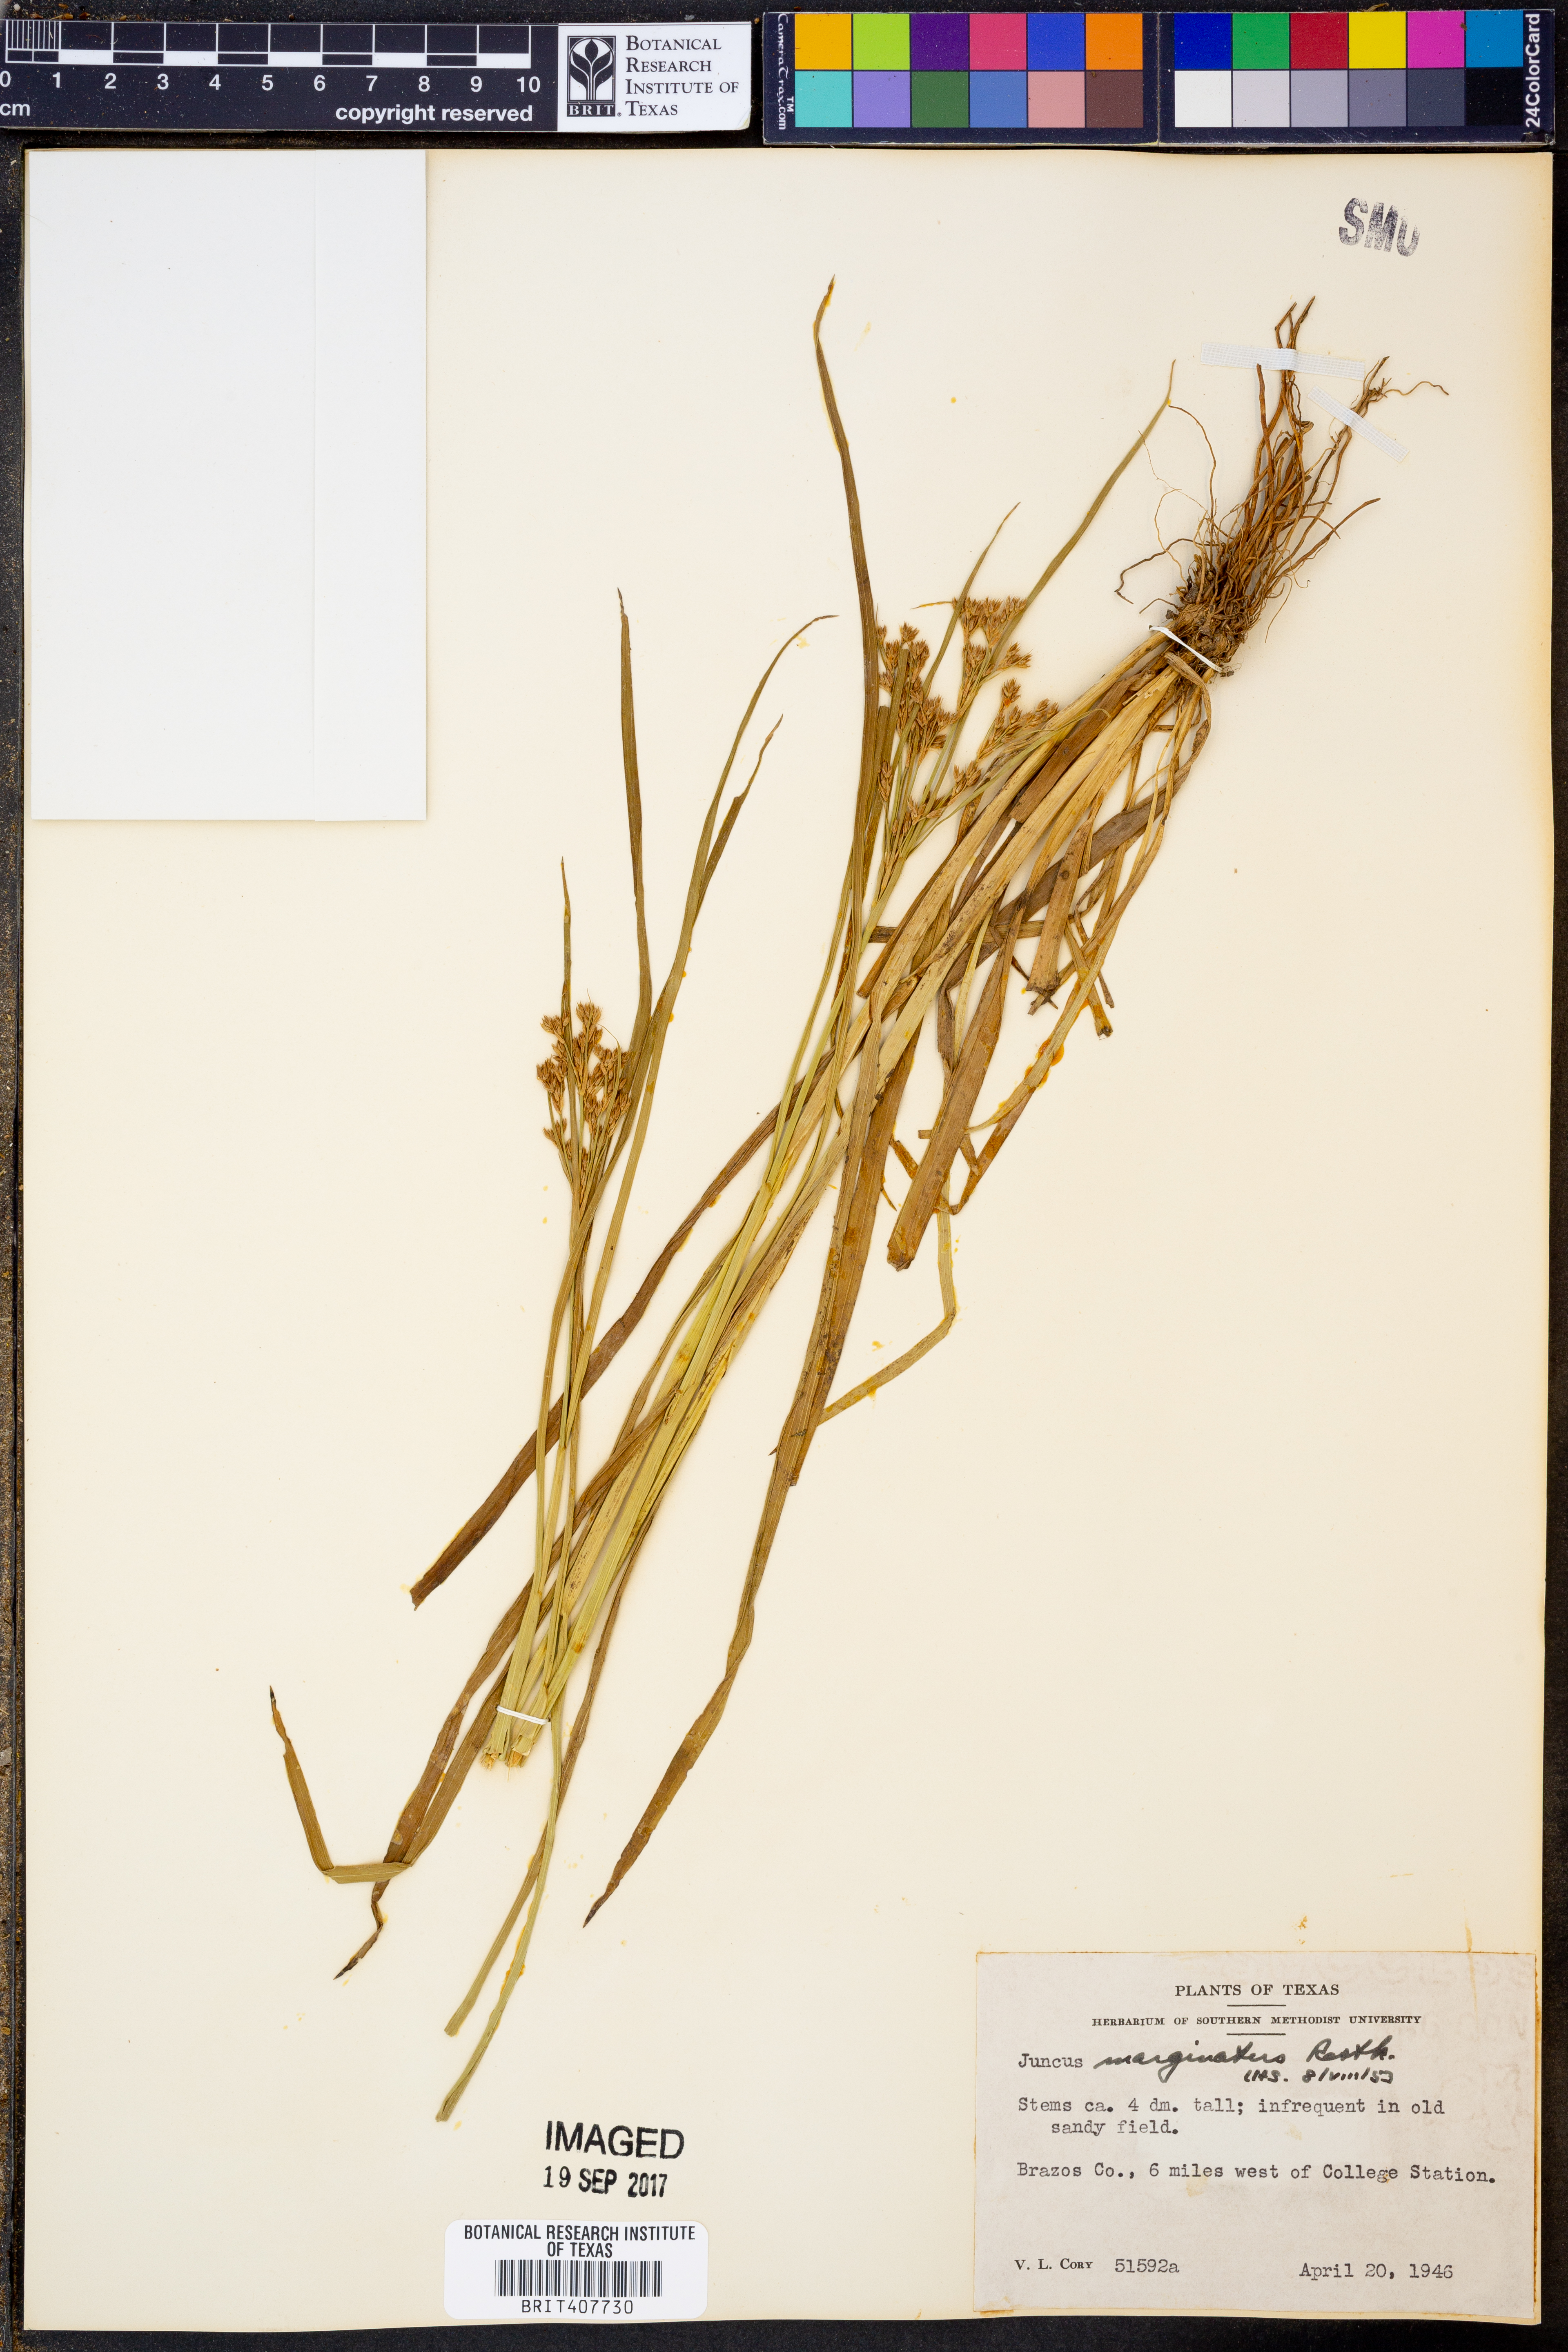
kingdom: Plantae
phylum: Tracheophyta
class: Liliopsida
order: Poales
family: Juncaceae
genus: Juncus
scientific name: Juncus marginatus
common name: Grass-leaf rush
